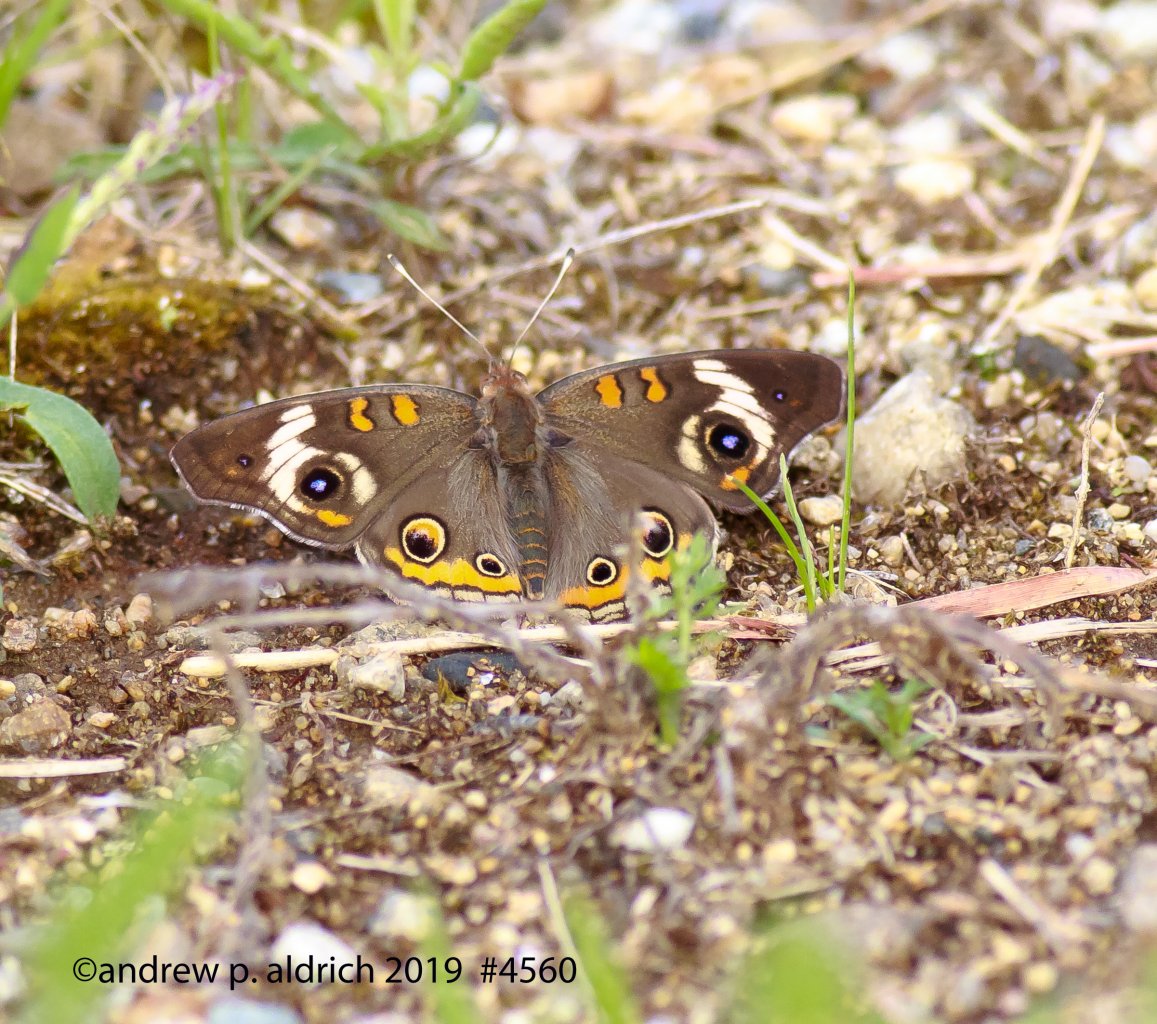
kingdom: Animalia
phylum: Arthropoda
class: Insecta
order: Lepidoptera
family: Nymphalidae
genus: Junonia
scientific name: Junonia coenia
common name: Common Buckeye
